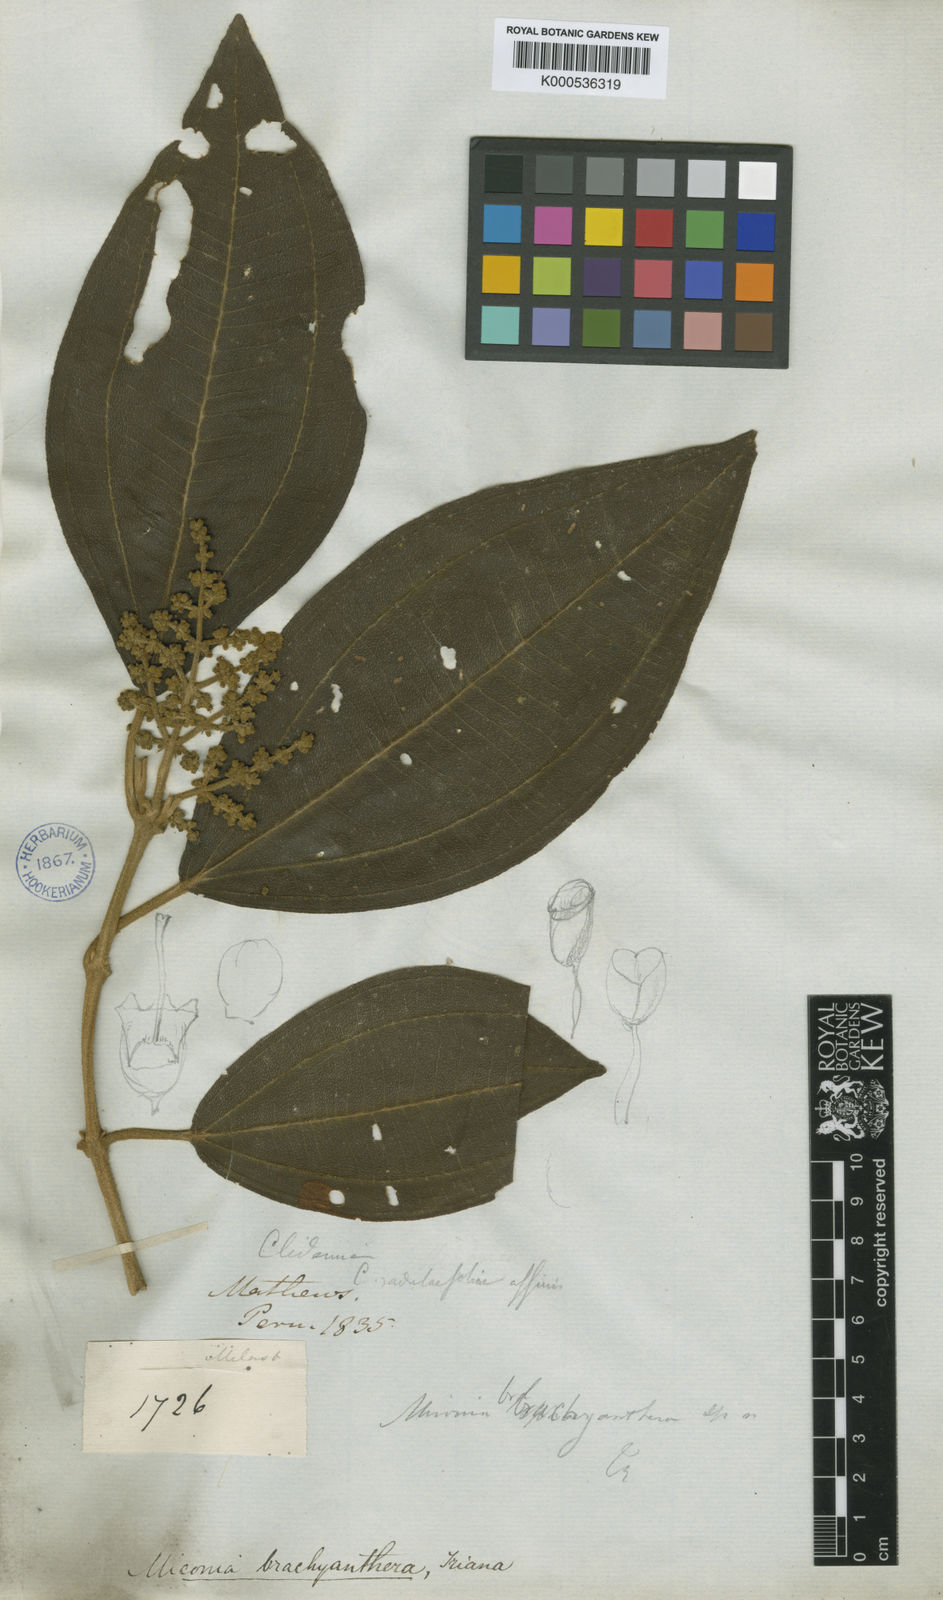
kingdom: Plantae
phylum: Tracheophyta
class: Magnoliopsida
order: Myrtales
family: Melastomataceae
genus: Miconia
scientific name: Miconia brachyanthera
